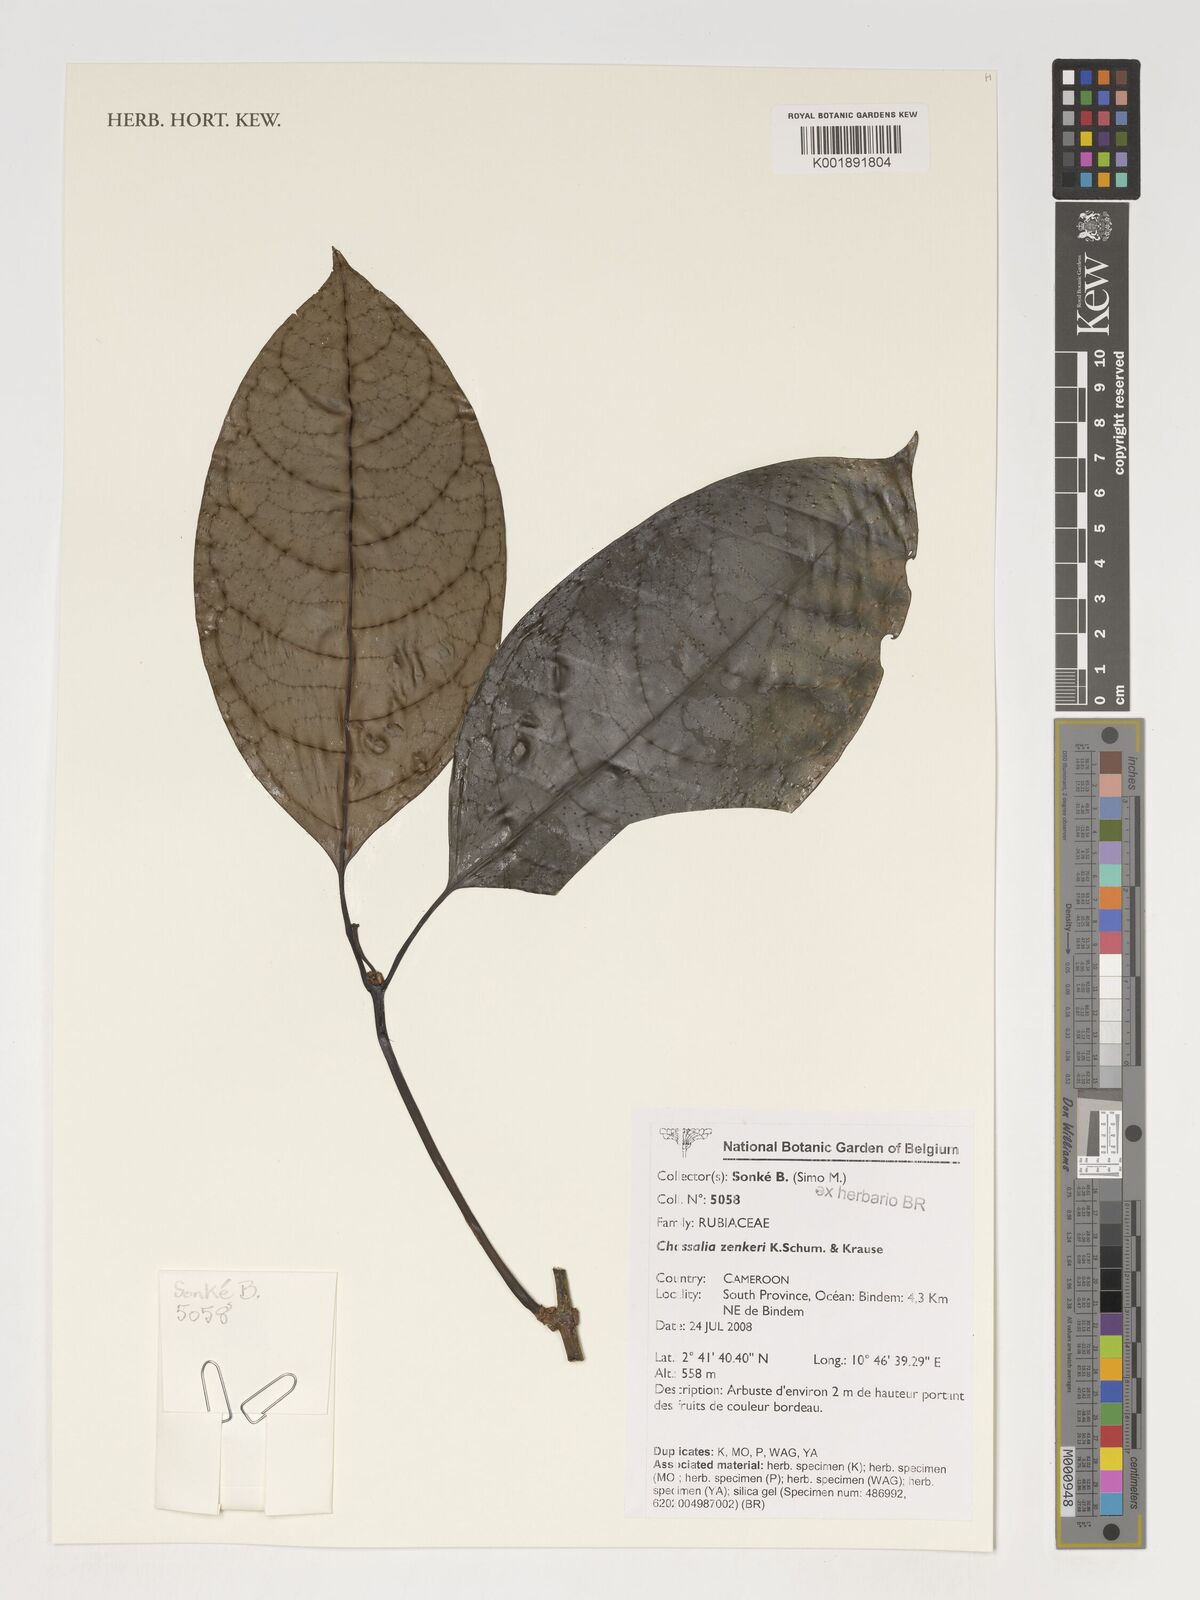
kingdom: Plantae
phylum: Tracheophyta
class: Magnoliopsida
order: Gentianales
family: Rubiaceae
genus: Chassalia
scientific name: Chassalia zenkeri
